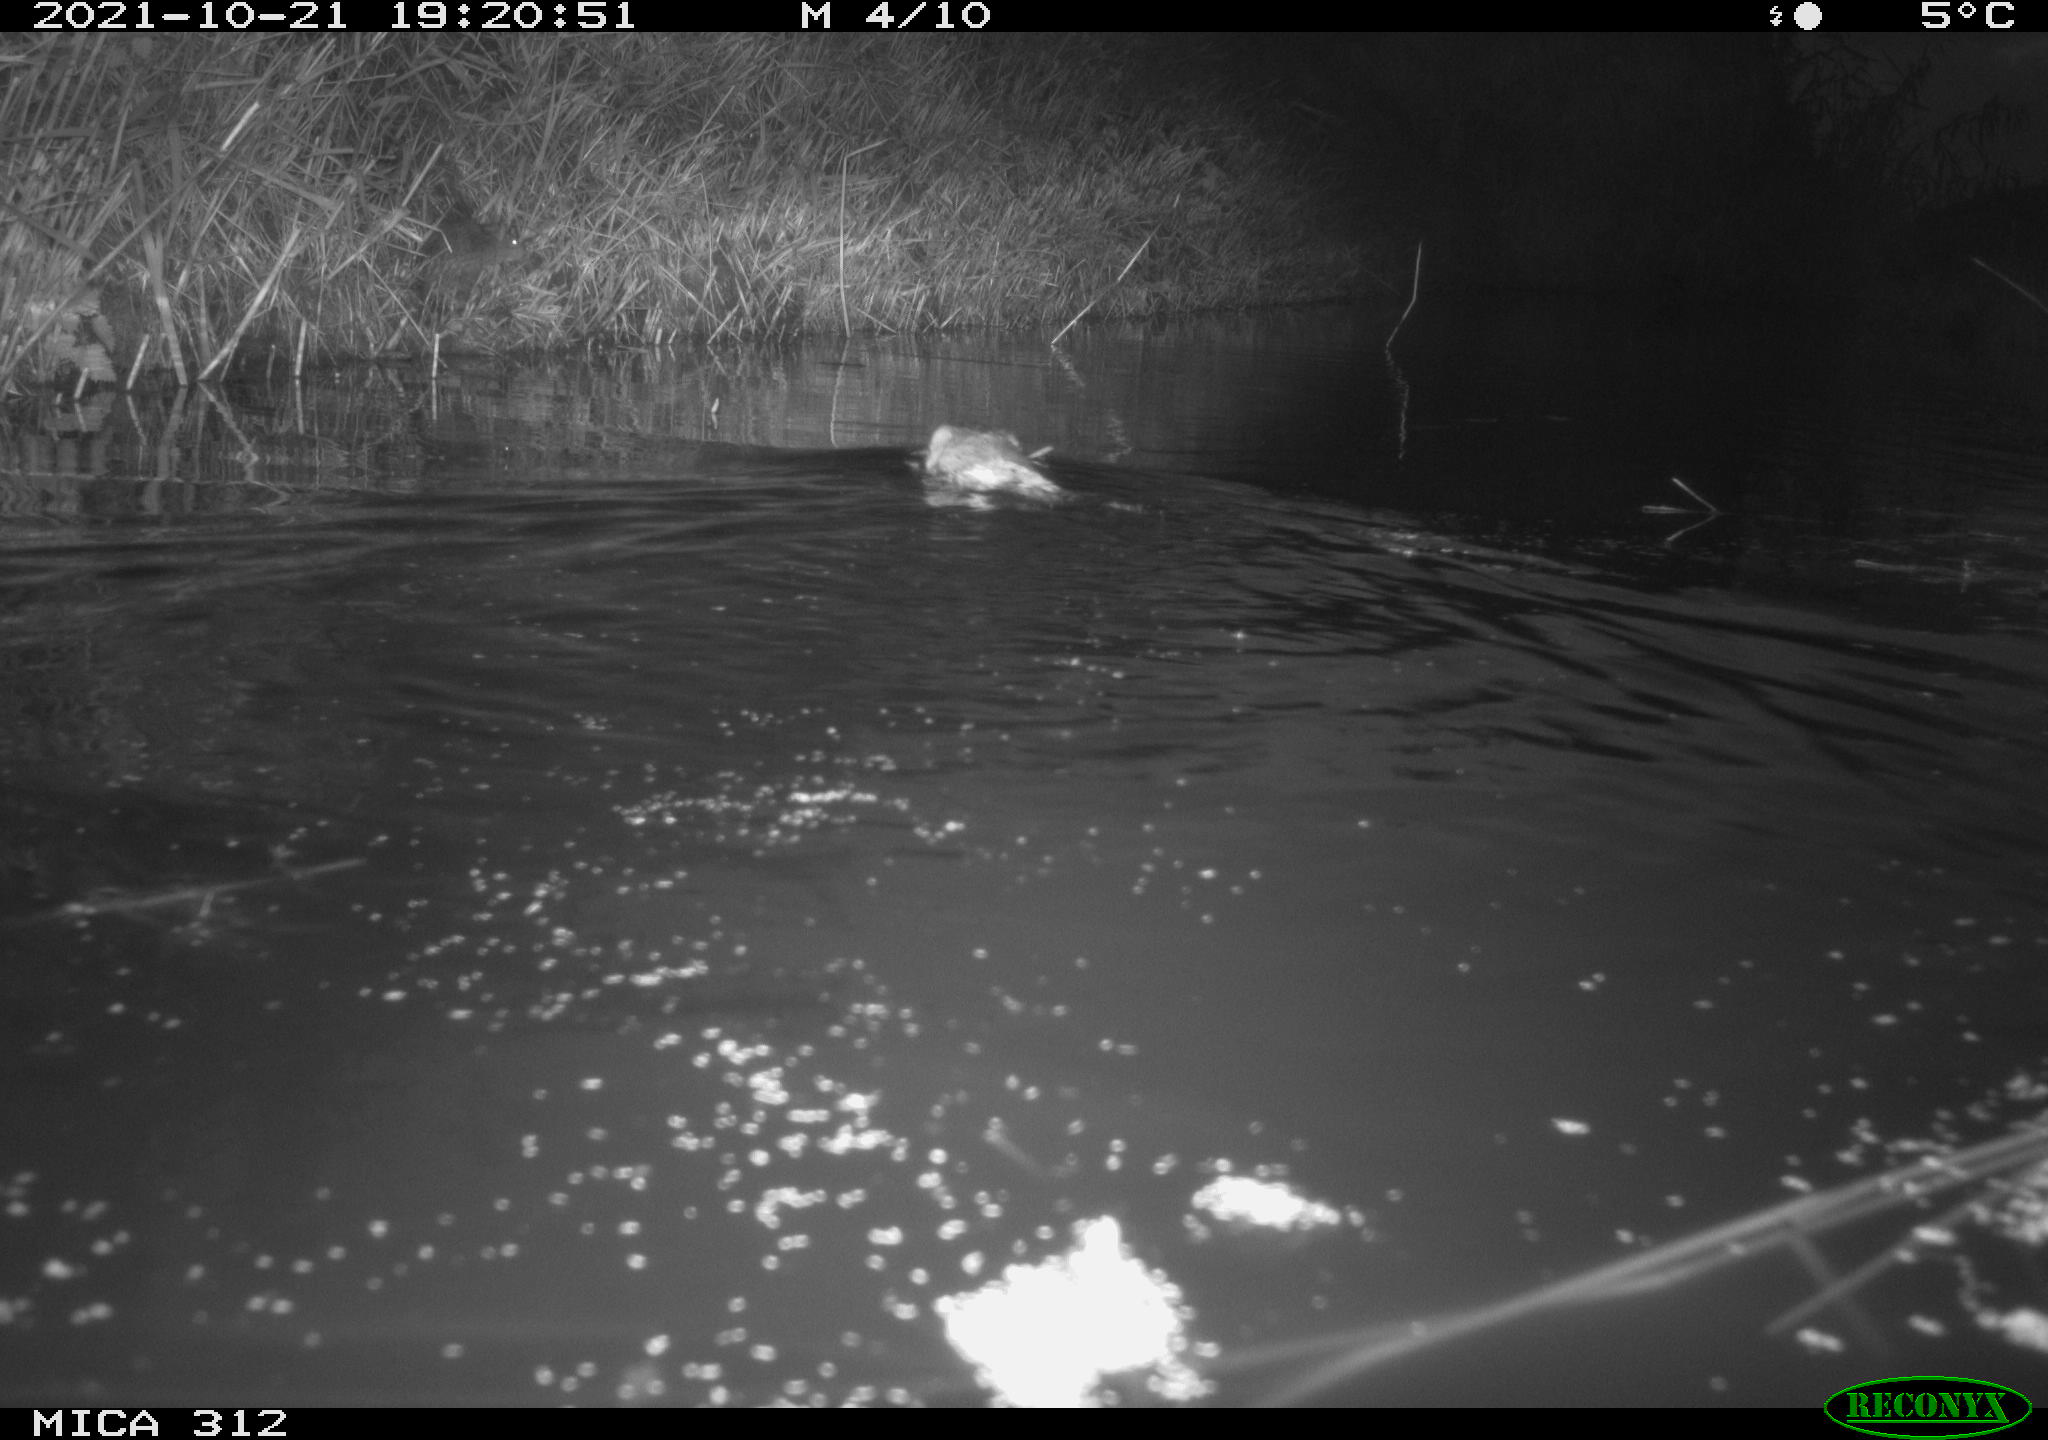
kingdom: Animalia
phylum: Chordata
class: Mammalia
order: Rodentia
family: Cricetidae
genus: Ondatra
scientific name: Ondatra zibethicus
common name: Muskrat
